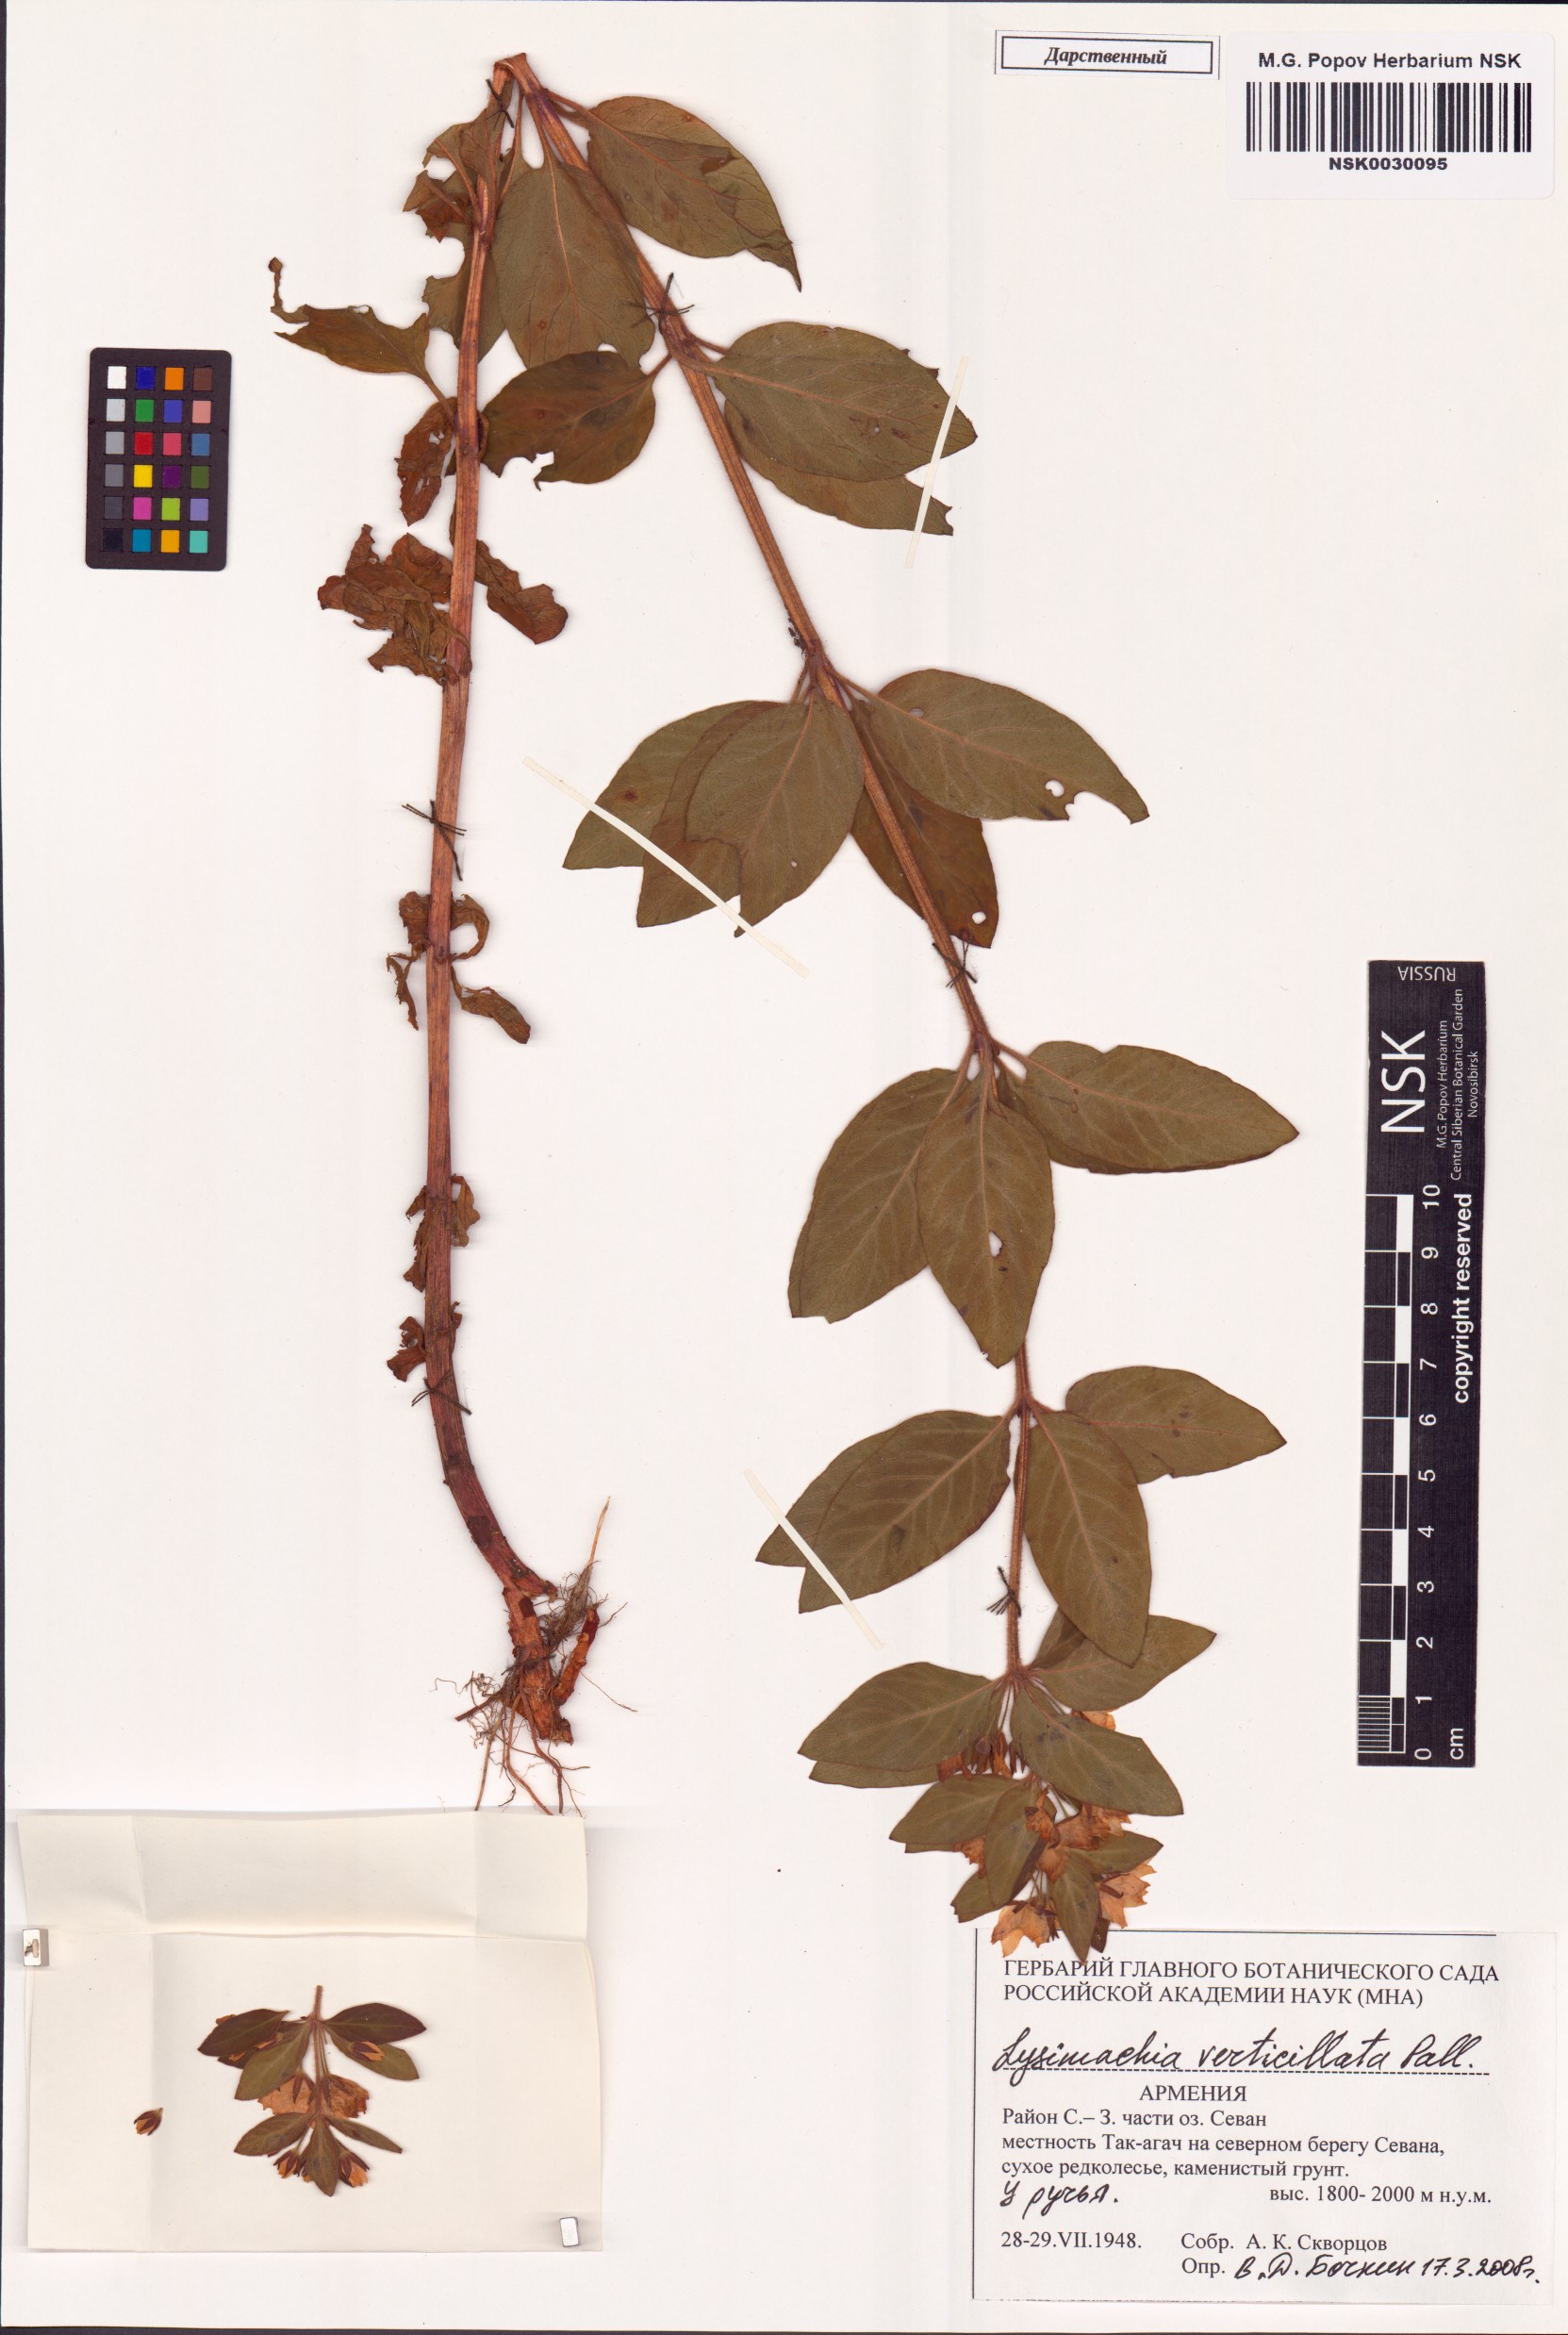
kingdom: Plantae
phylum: Tracheophyta
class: Magnoliopsida
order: Ericales
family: Primulaceae
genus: Lysimachia
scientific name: Lysimachia verticillaris
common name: Yellow loosestrife
